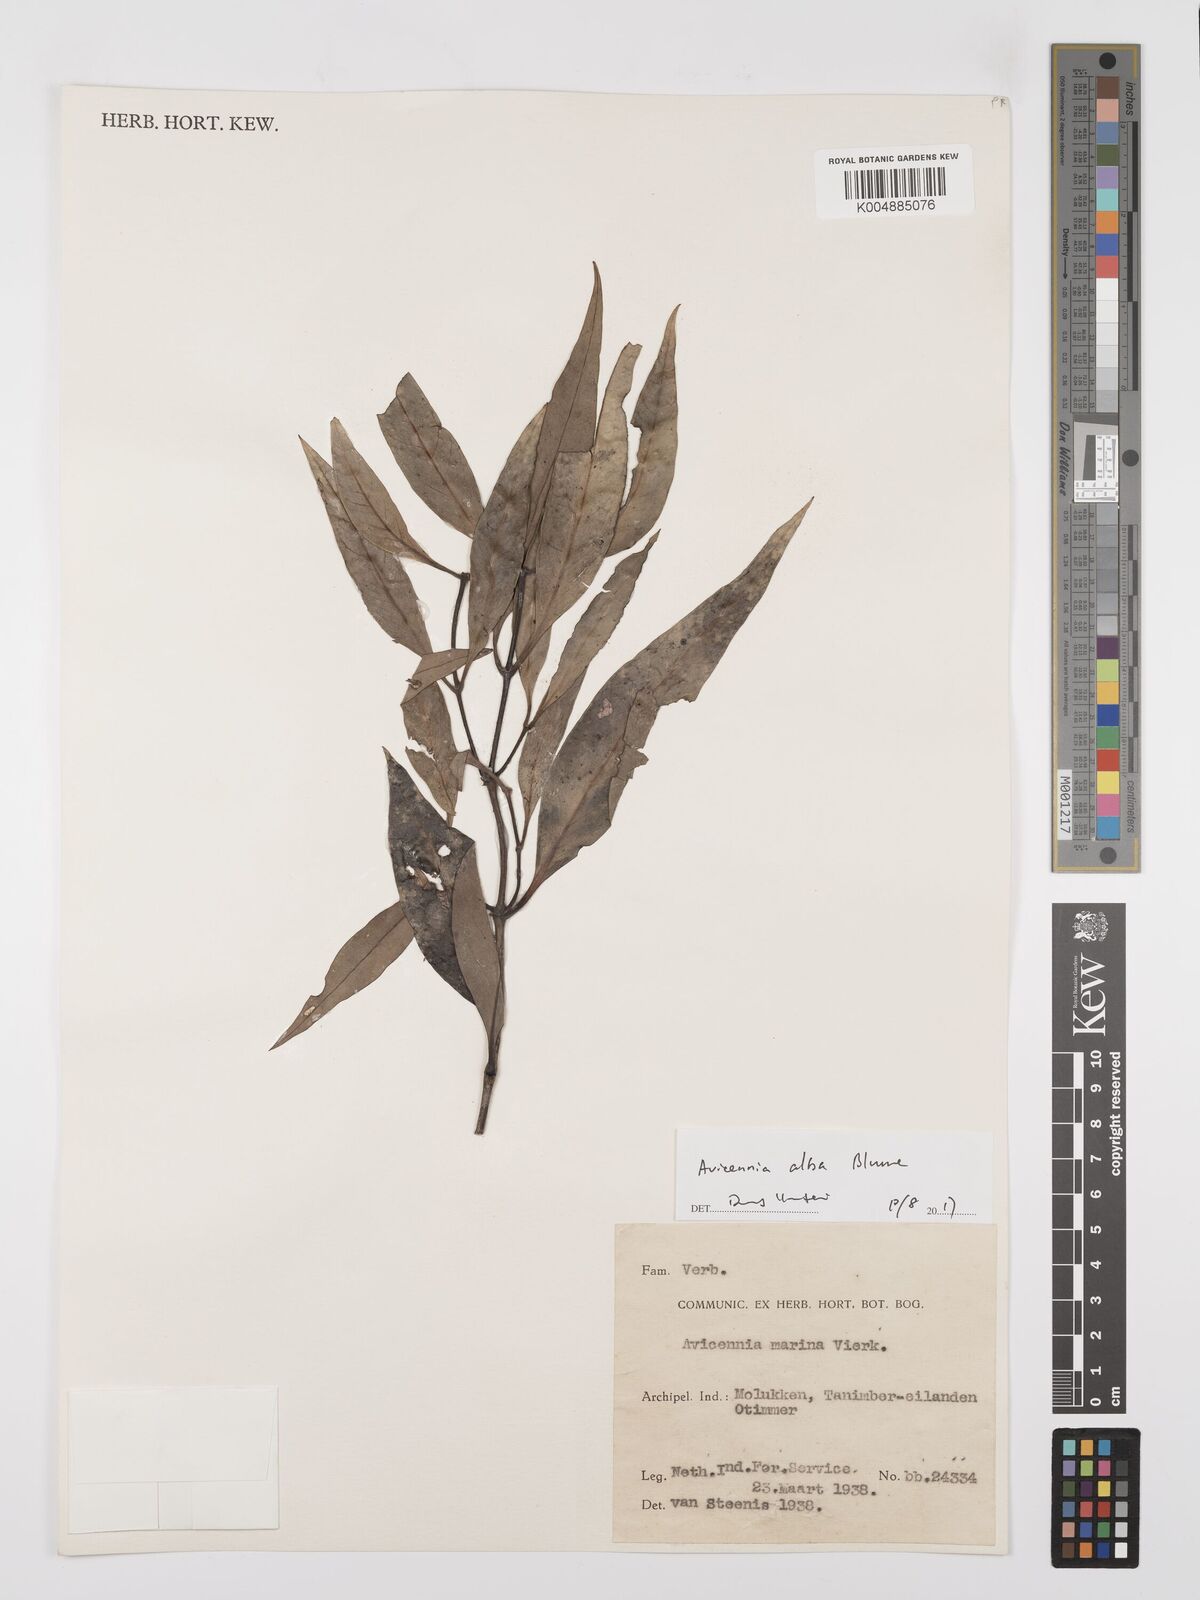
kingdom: Plantae
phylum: Tracheophyta
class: Magnoliopsida
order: Lamiales
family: Acanthaceae
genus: Avicennia
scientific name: Avicennia alba
